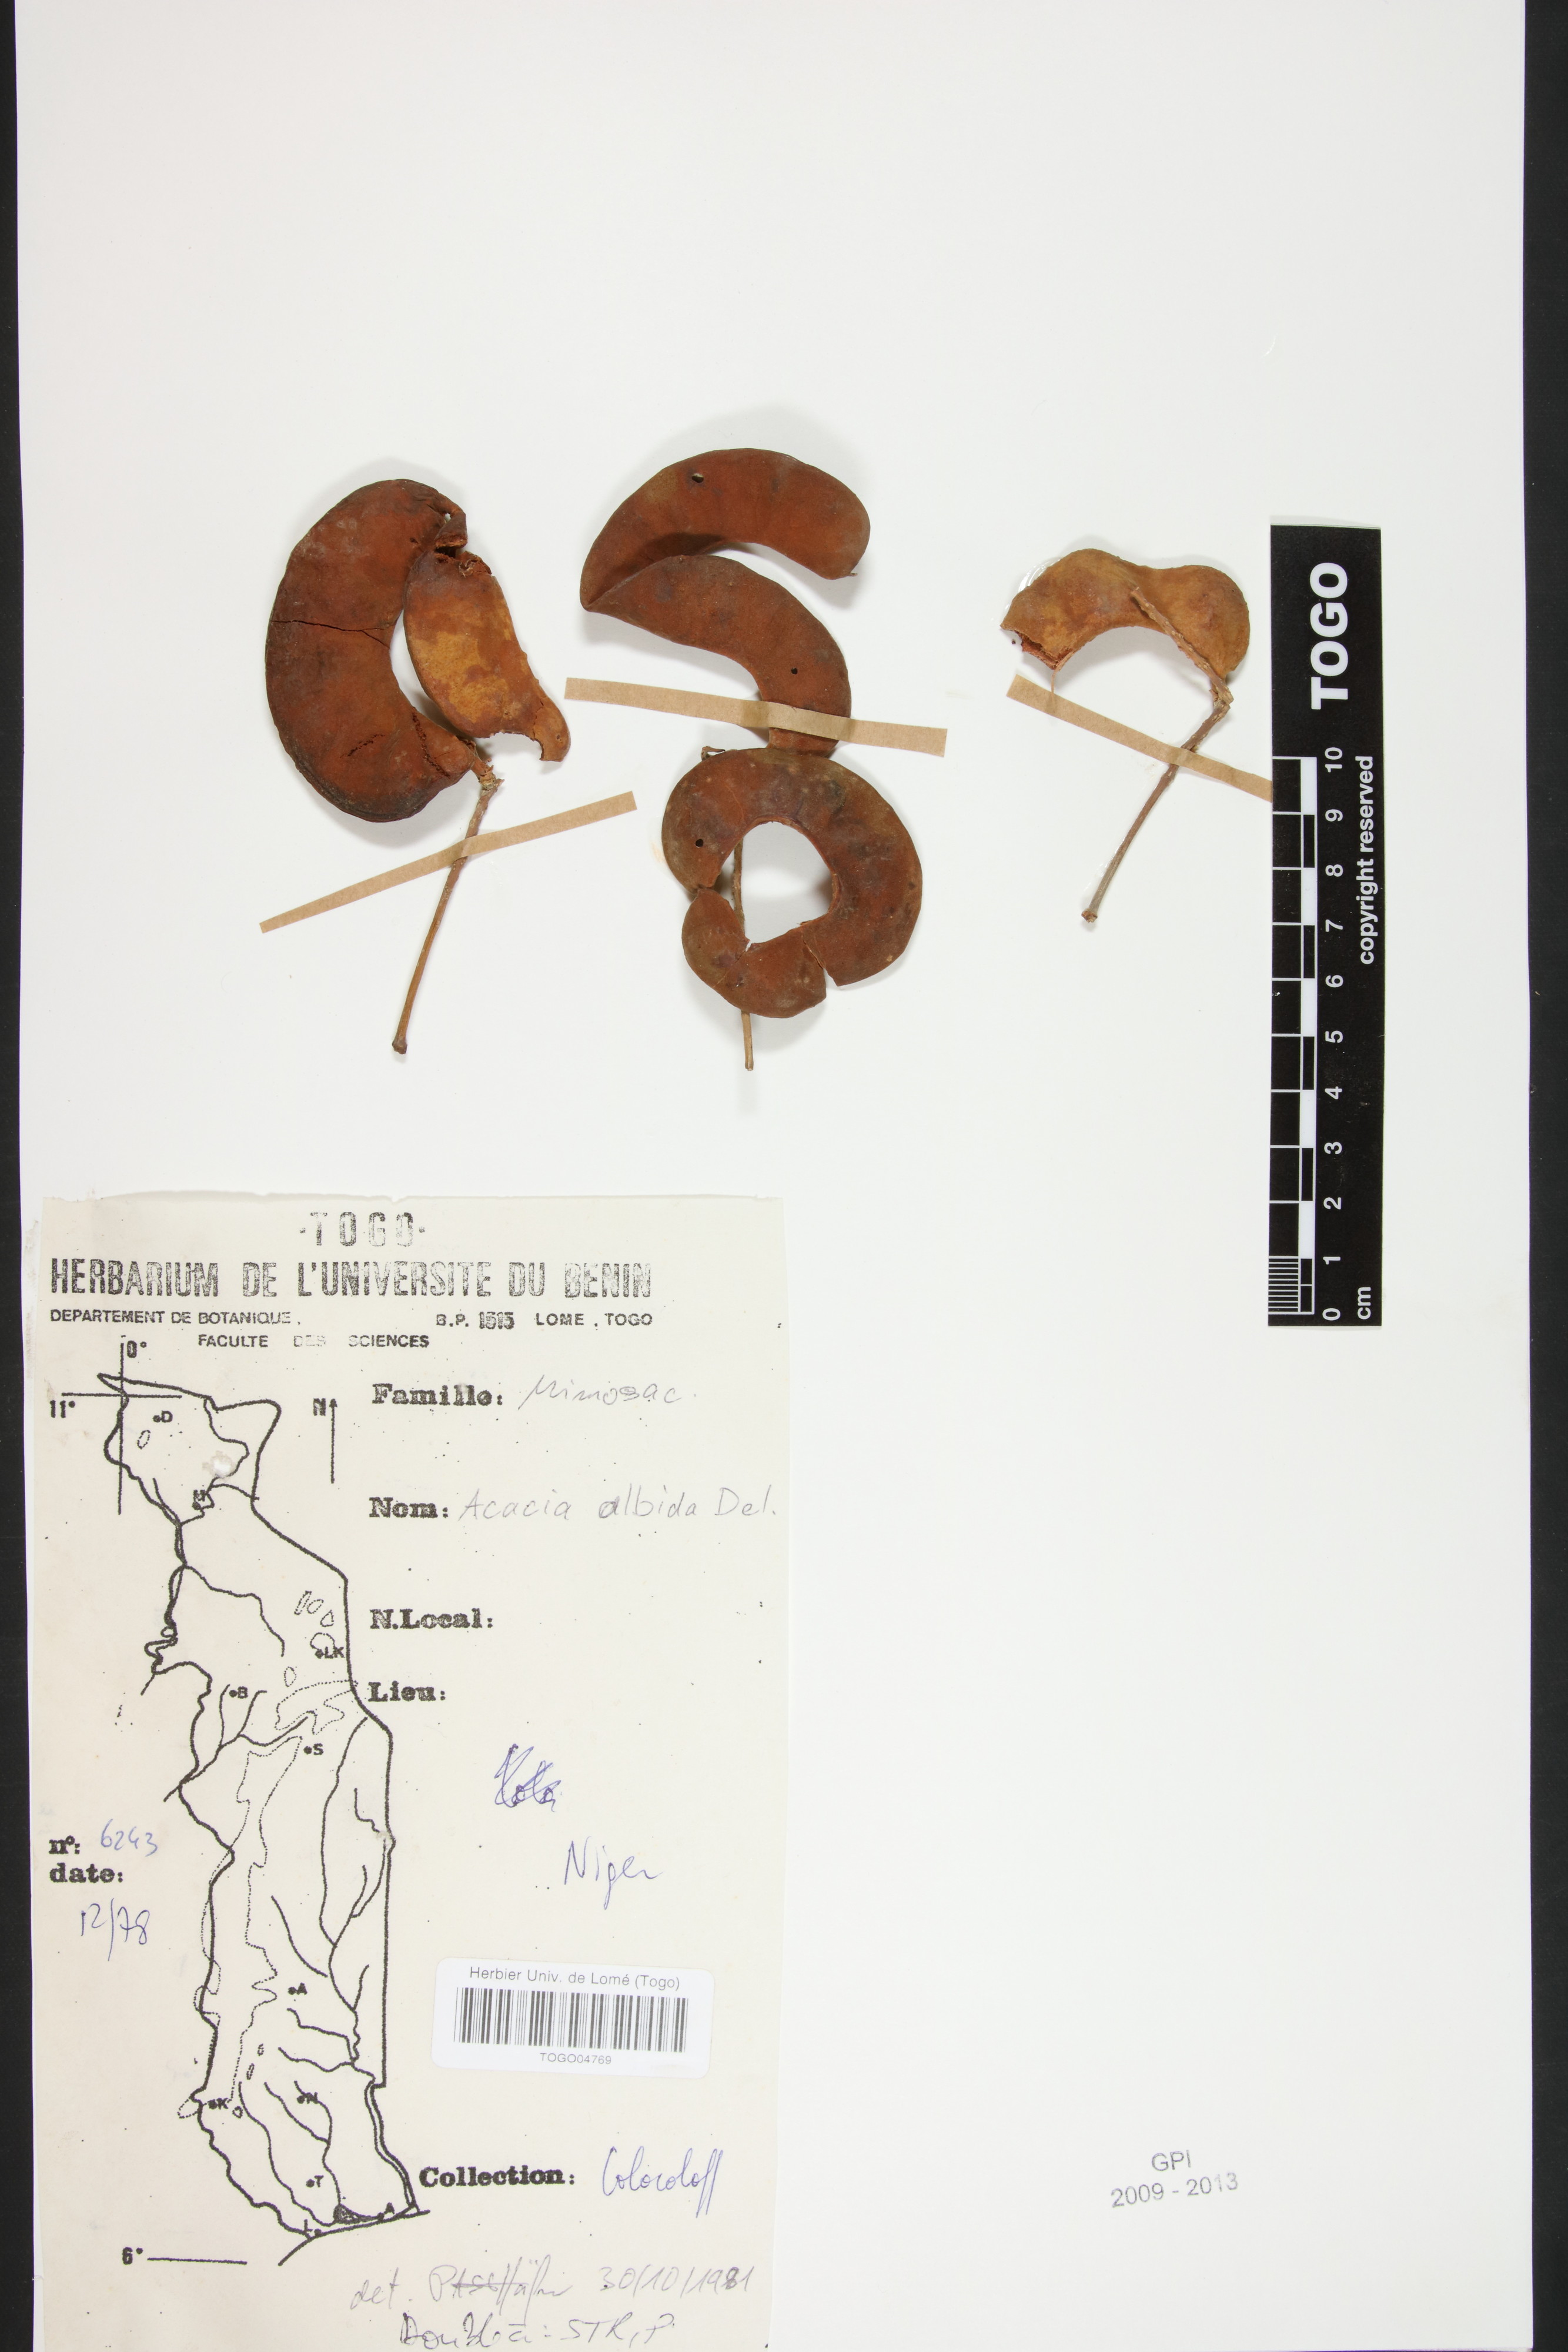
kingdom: Plantae
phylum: Tracheophyta
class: Magnoliopsida
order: Fabales
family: Fabaceae
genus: Faidherbia
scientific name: Faidherbia albida
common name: Anatree
